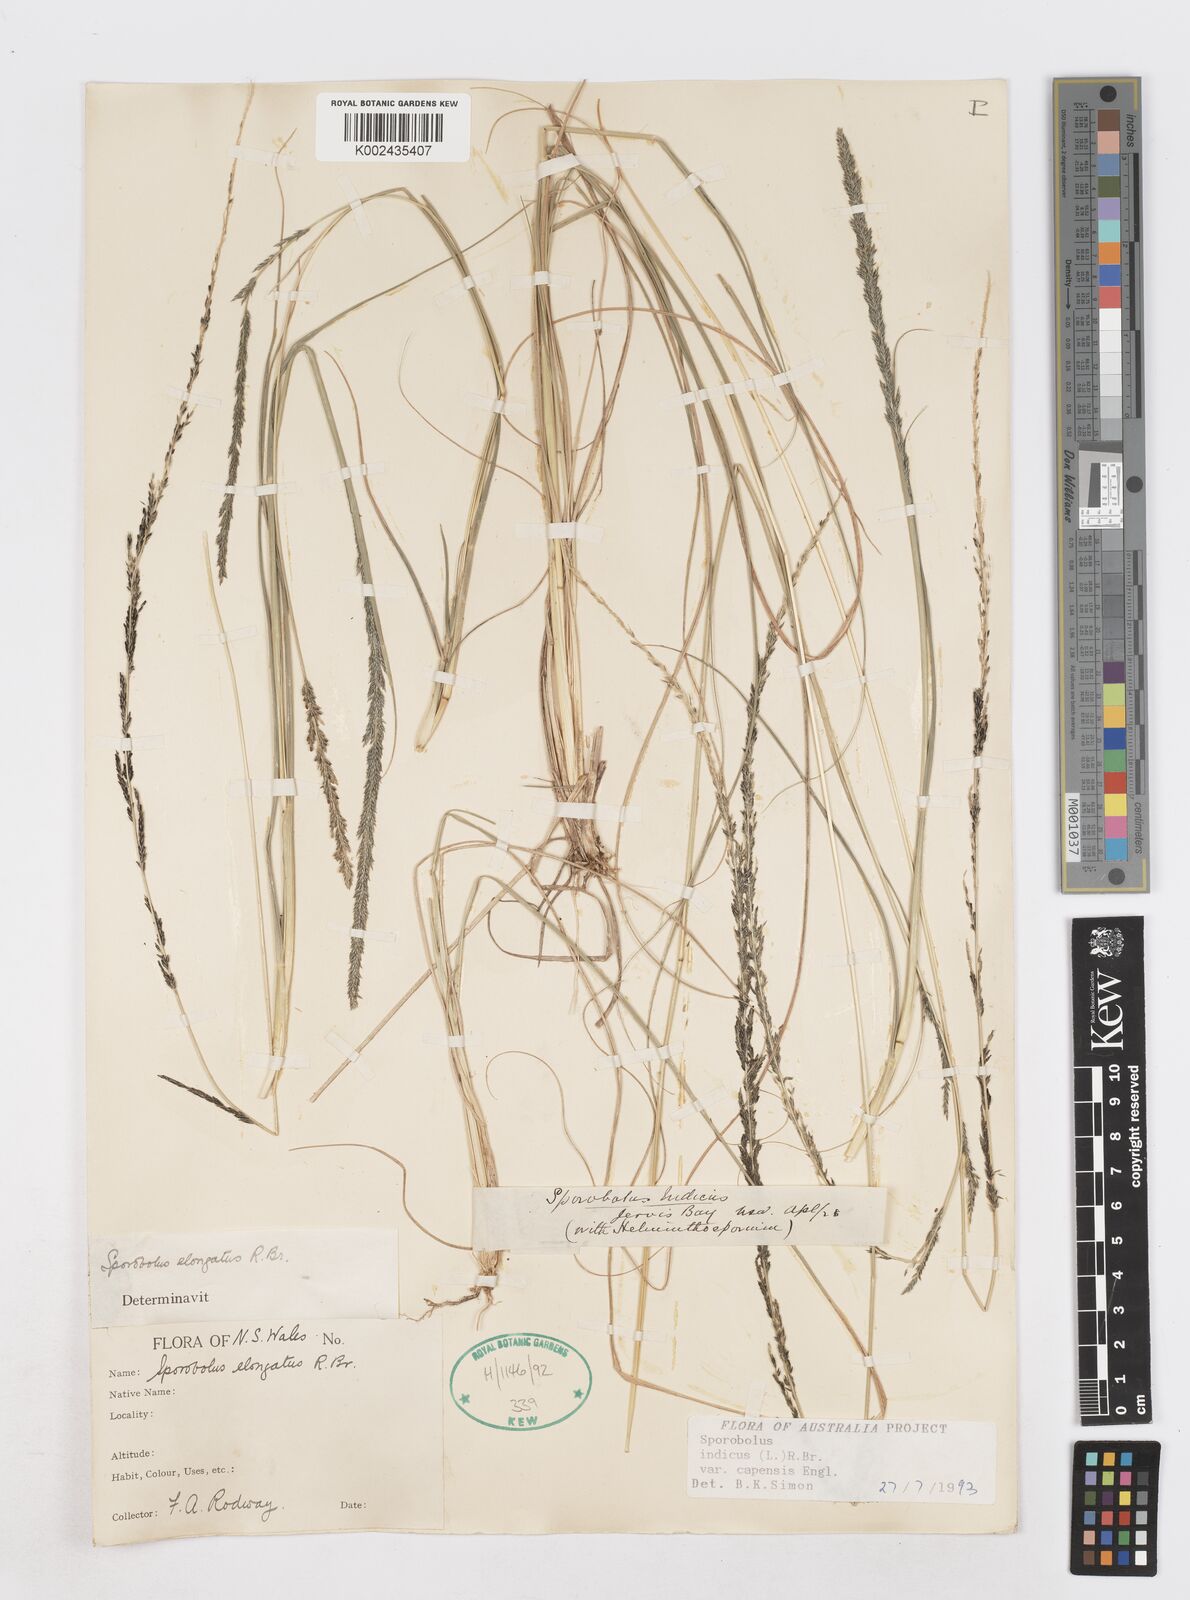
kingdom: Plantae
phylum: Tracheophyta
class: Liliopsida
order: Poales
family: Poaceae
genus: Sporobolus
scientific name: Sporobolus africanus
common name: African dropseed
